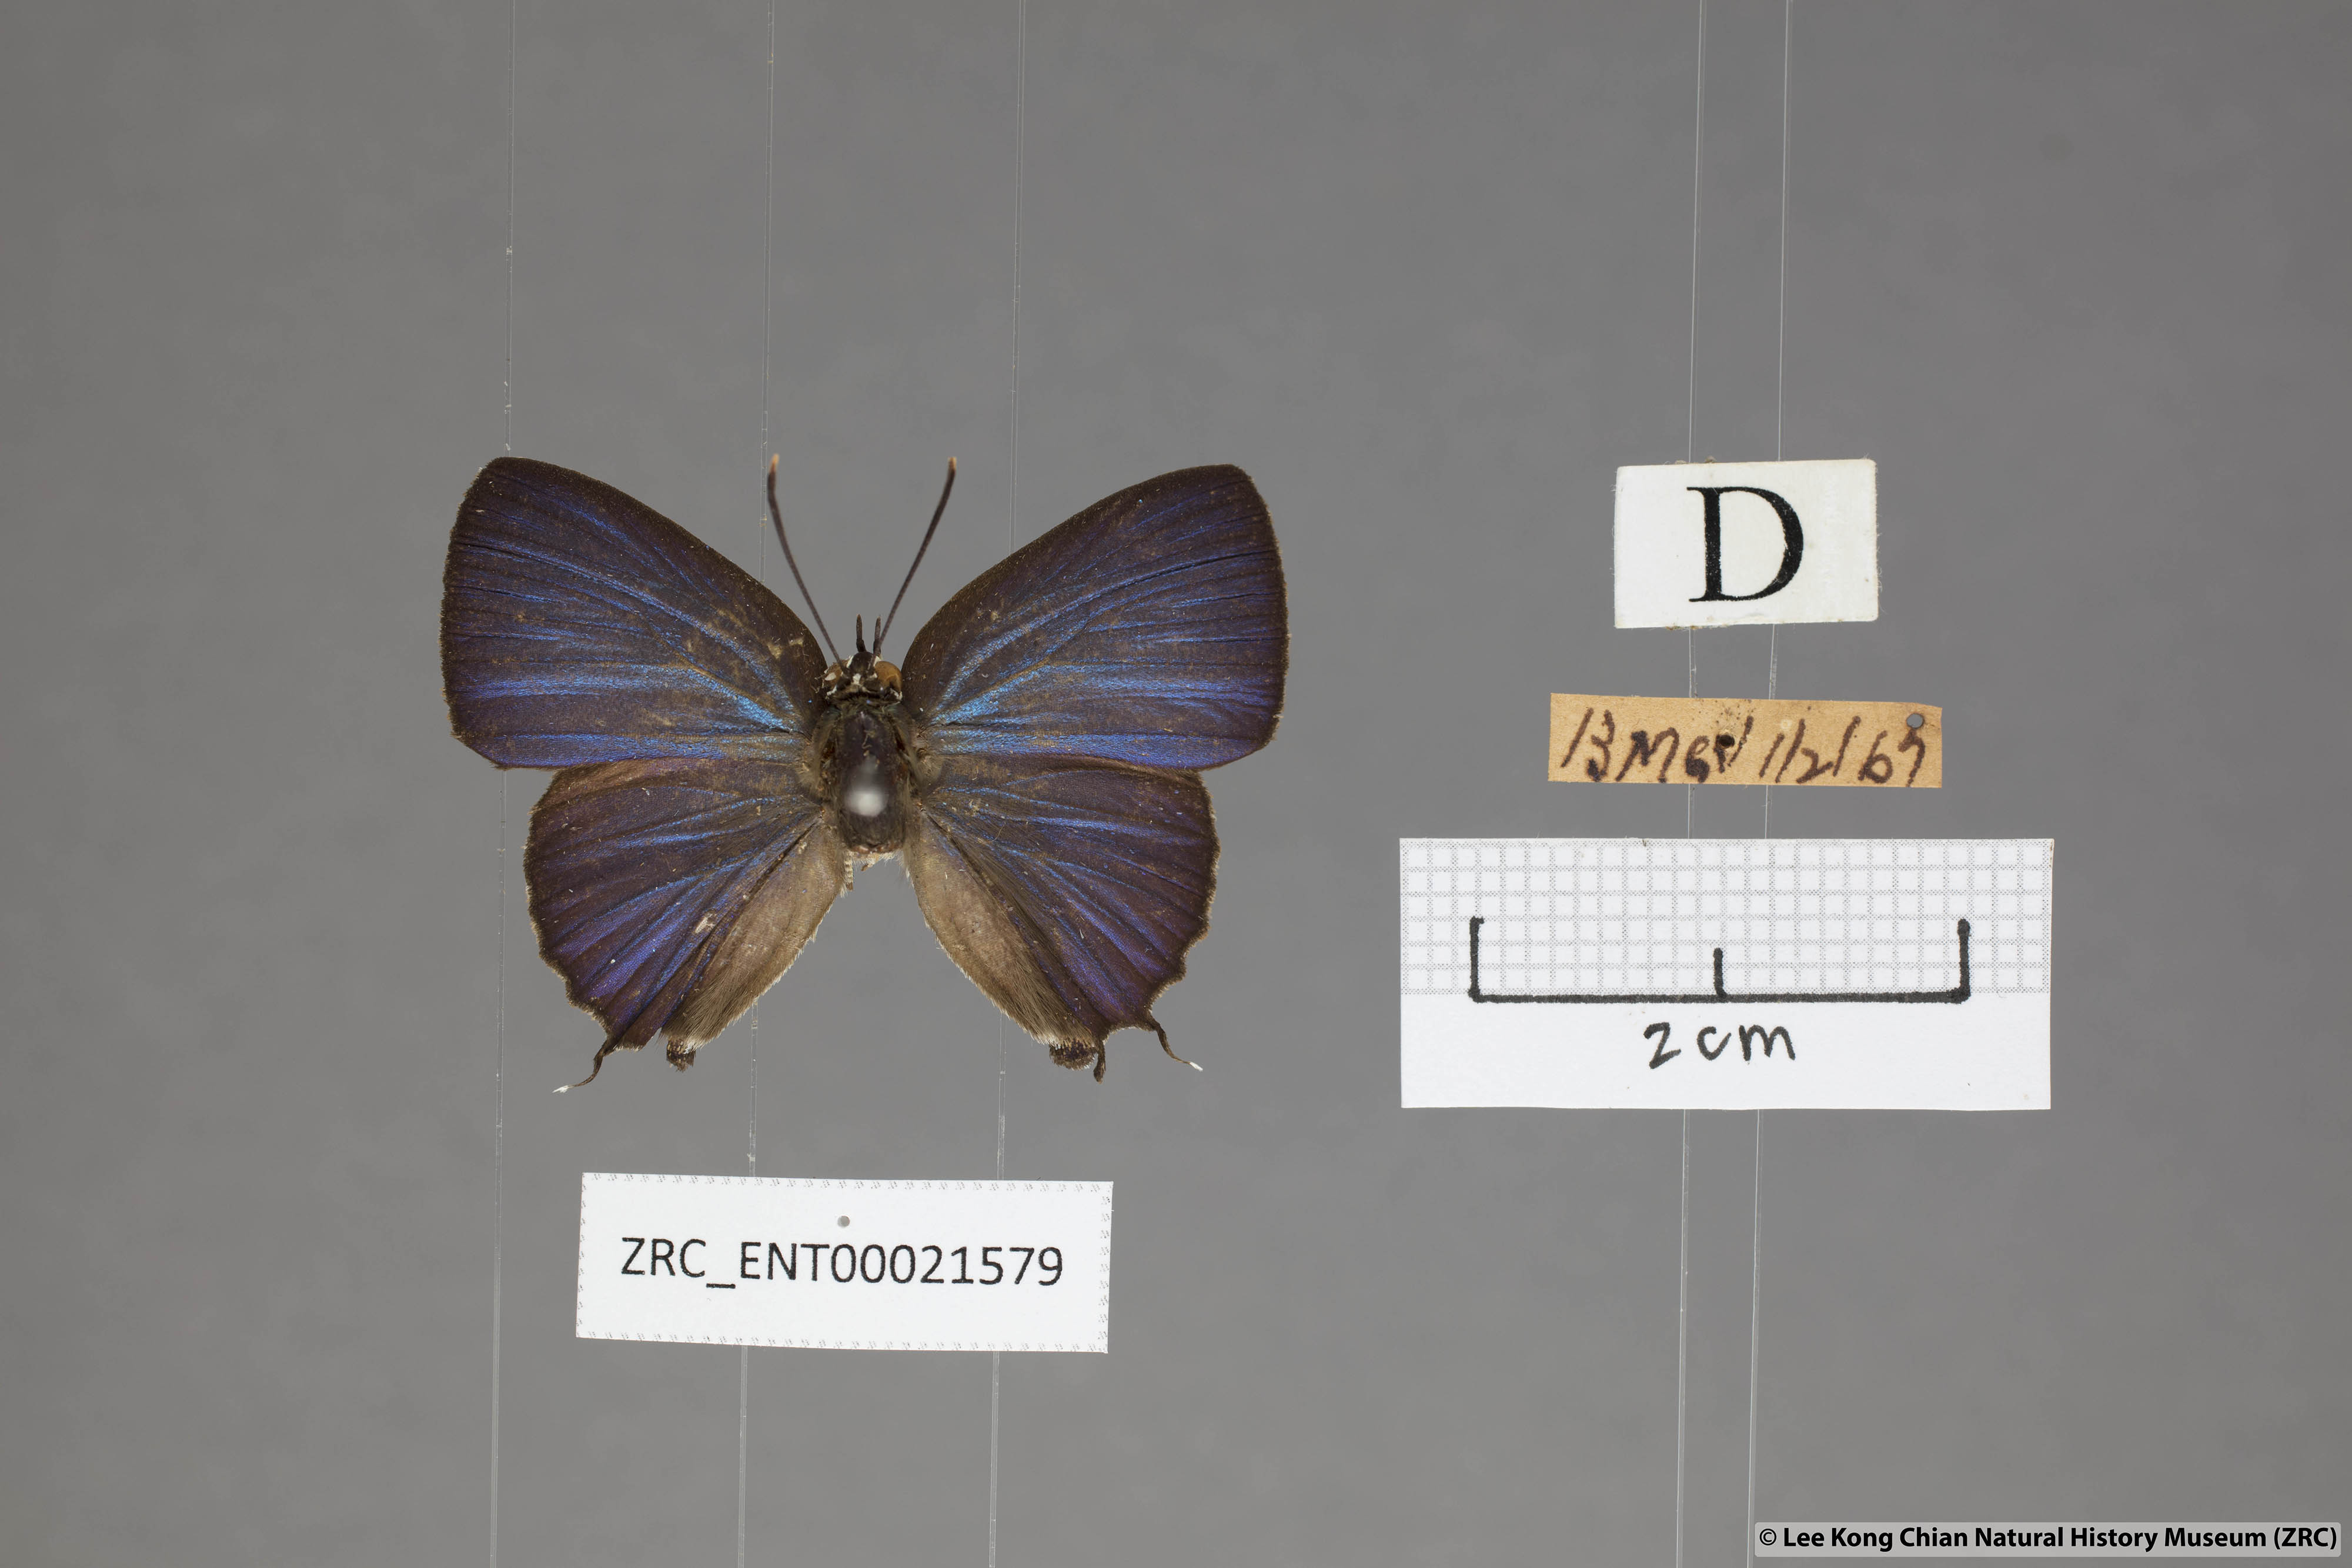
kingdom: Animalia
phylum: Arthropoda
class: Insecta
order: Lepidoptera
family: Lycaenidae
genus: Iraota
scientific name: Iraota
